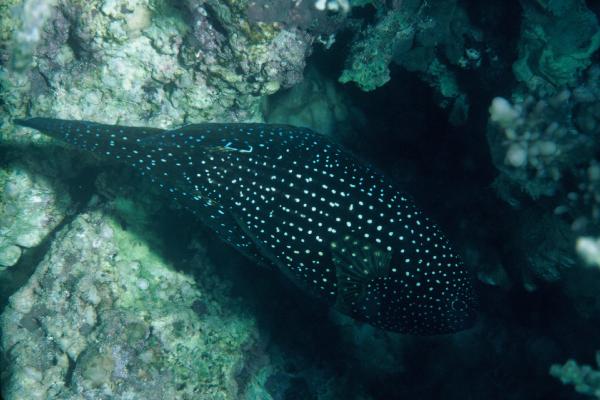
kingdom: Animalia
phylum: Chordata
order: Perciformes
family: Plesiopidae
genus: Calloplesiops
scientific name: Calloplesiops altivelis
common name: Comet
